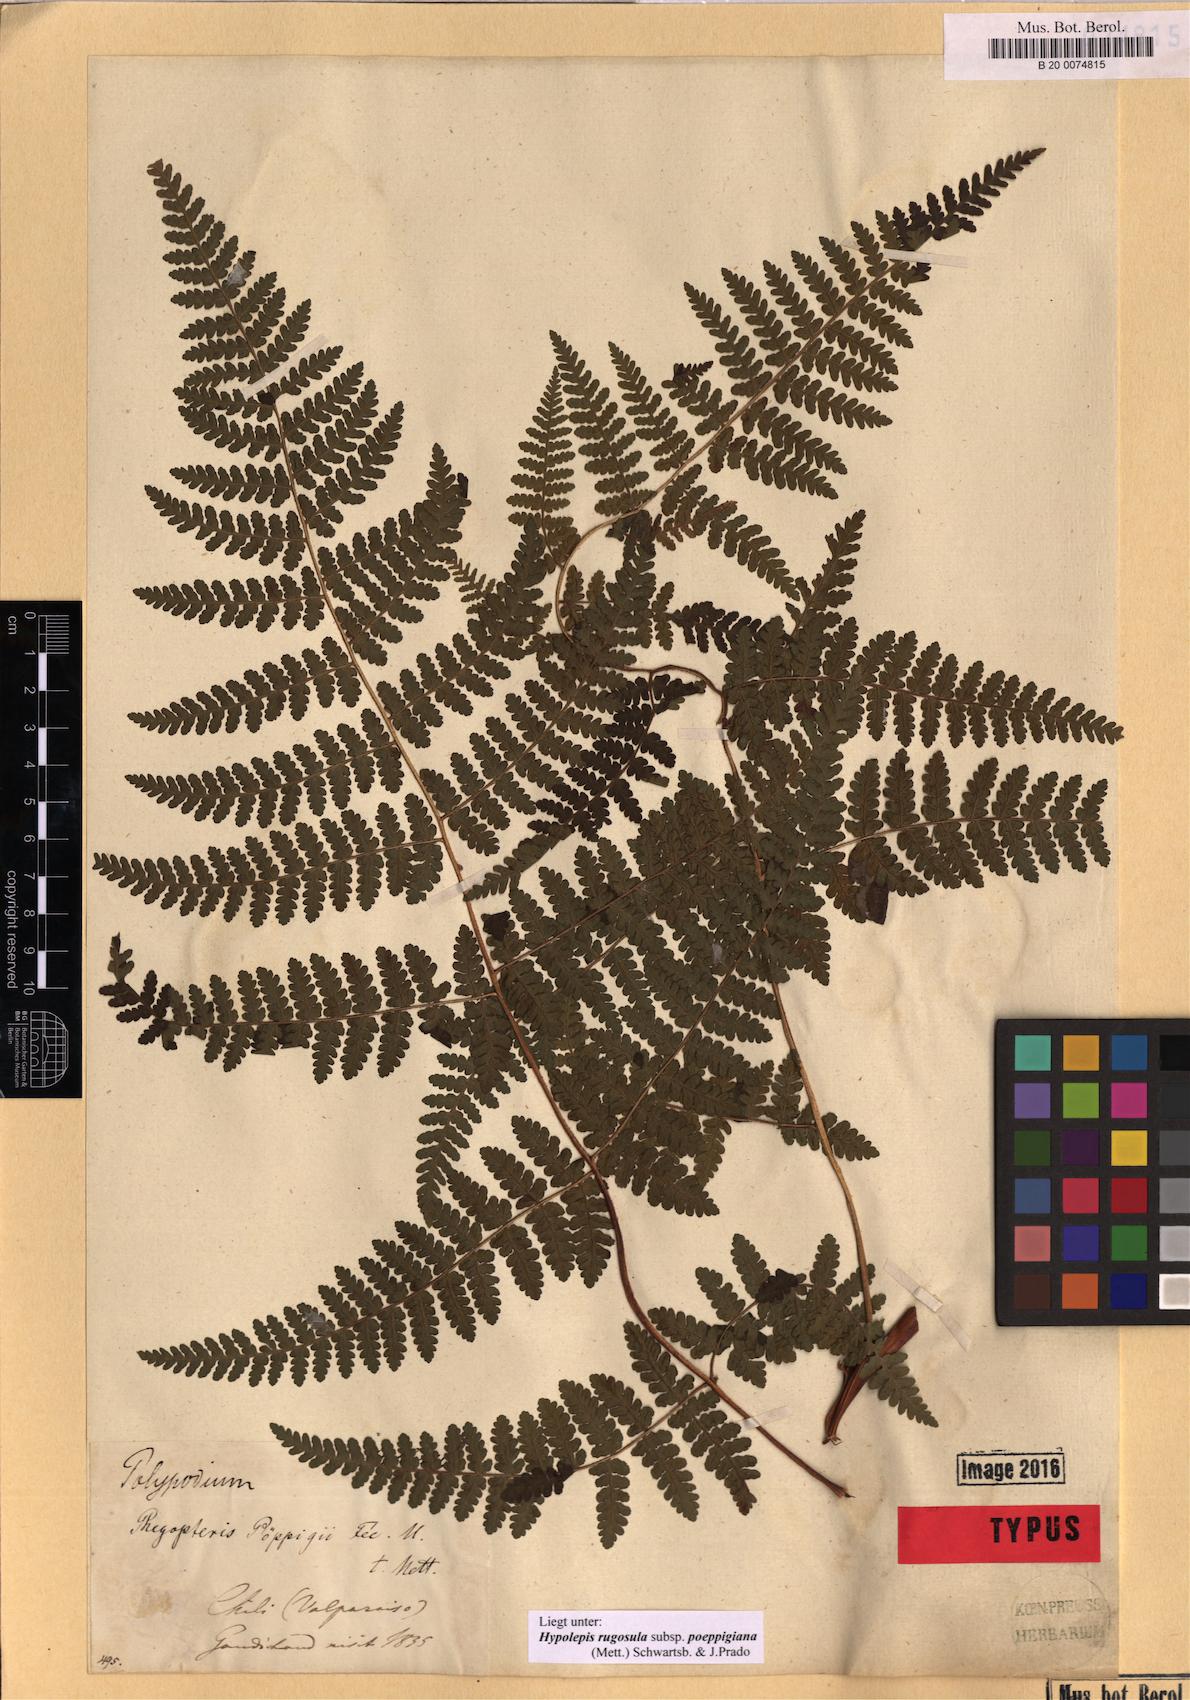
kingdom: Plantae
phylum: Tracheophyta
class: Polypodiopsida
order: Polypodiales
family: Dennstaedtiaceae
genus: Hypolepis
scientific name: Hypolepis rugosula
